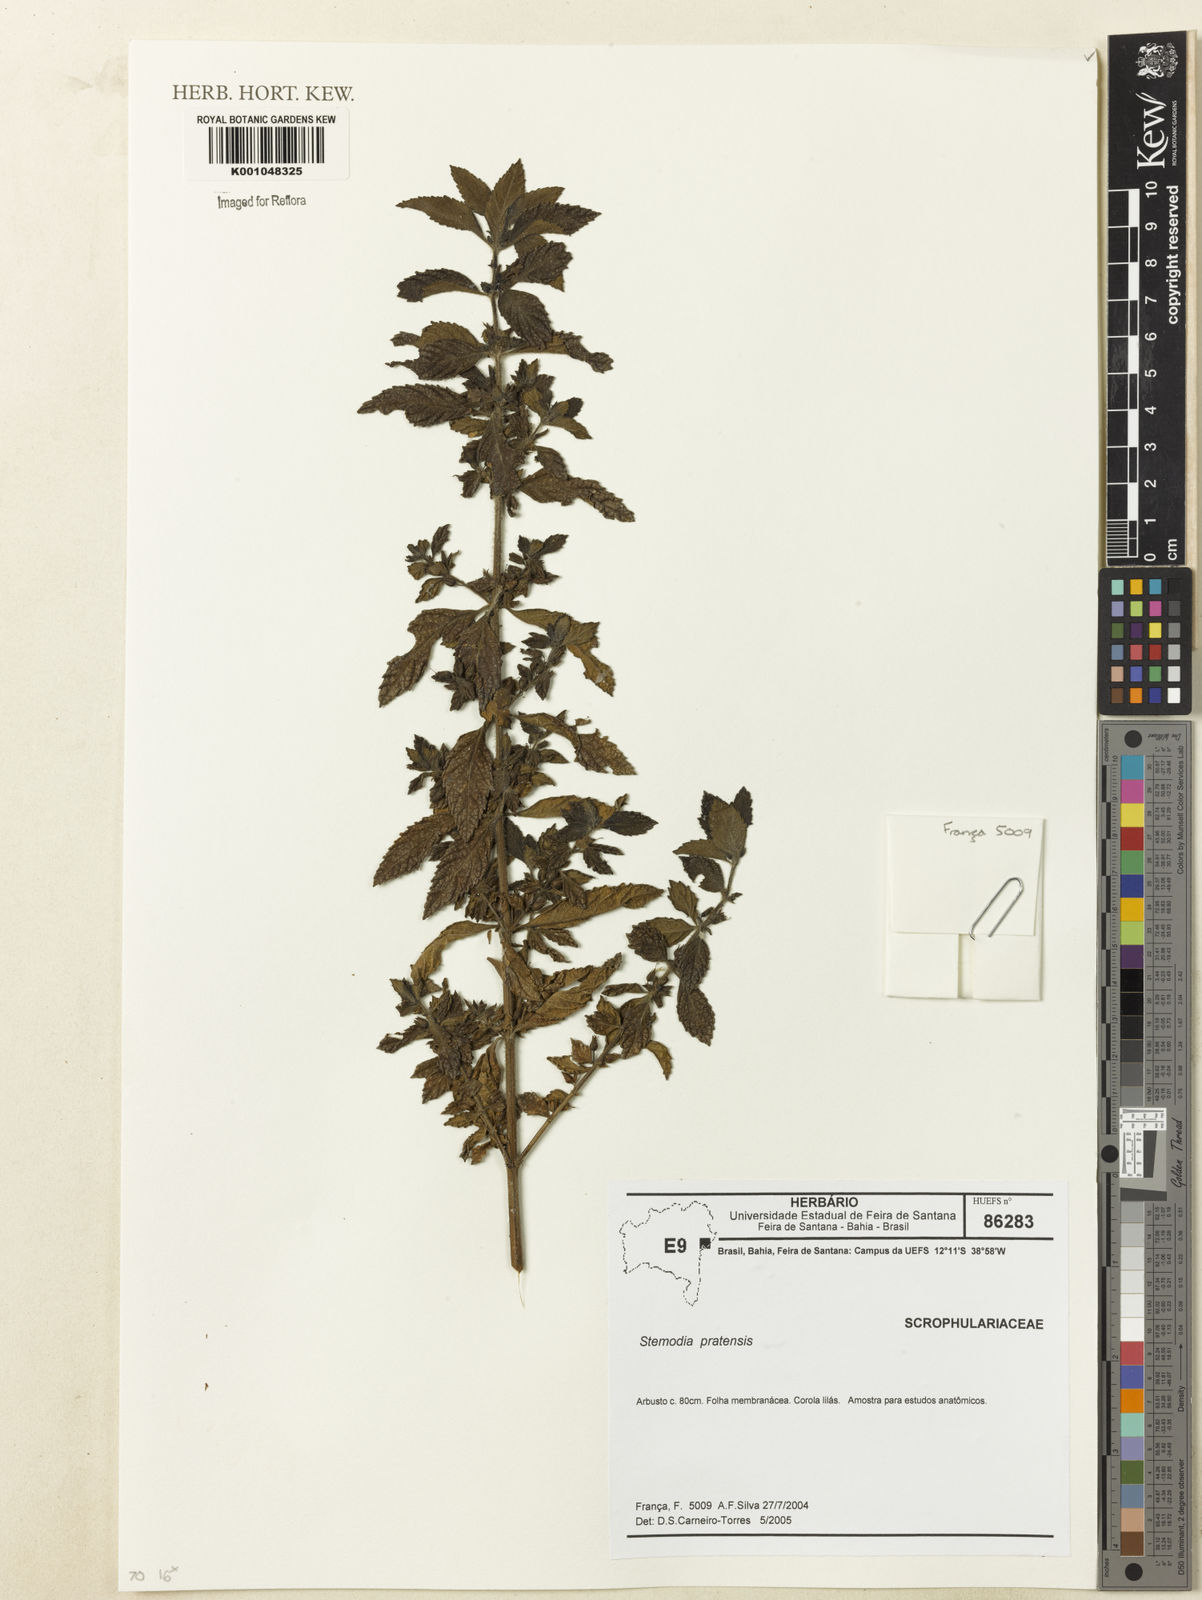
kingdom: Plantae
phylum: Tracheophyta
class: Magnoliopsida
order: Lamiales
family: Plantaginaceae
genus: Matourea
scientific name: Matourea pratensis
